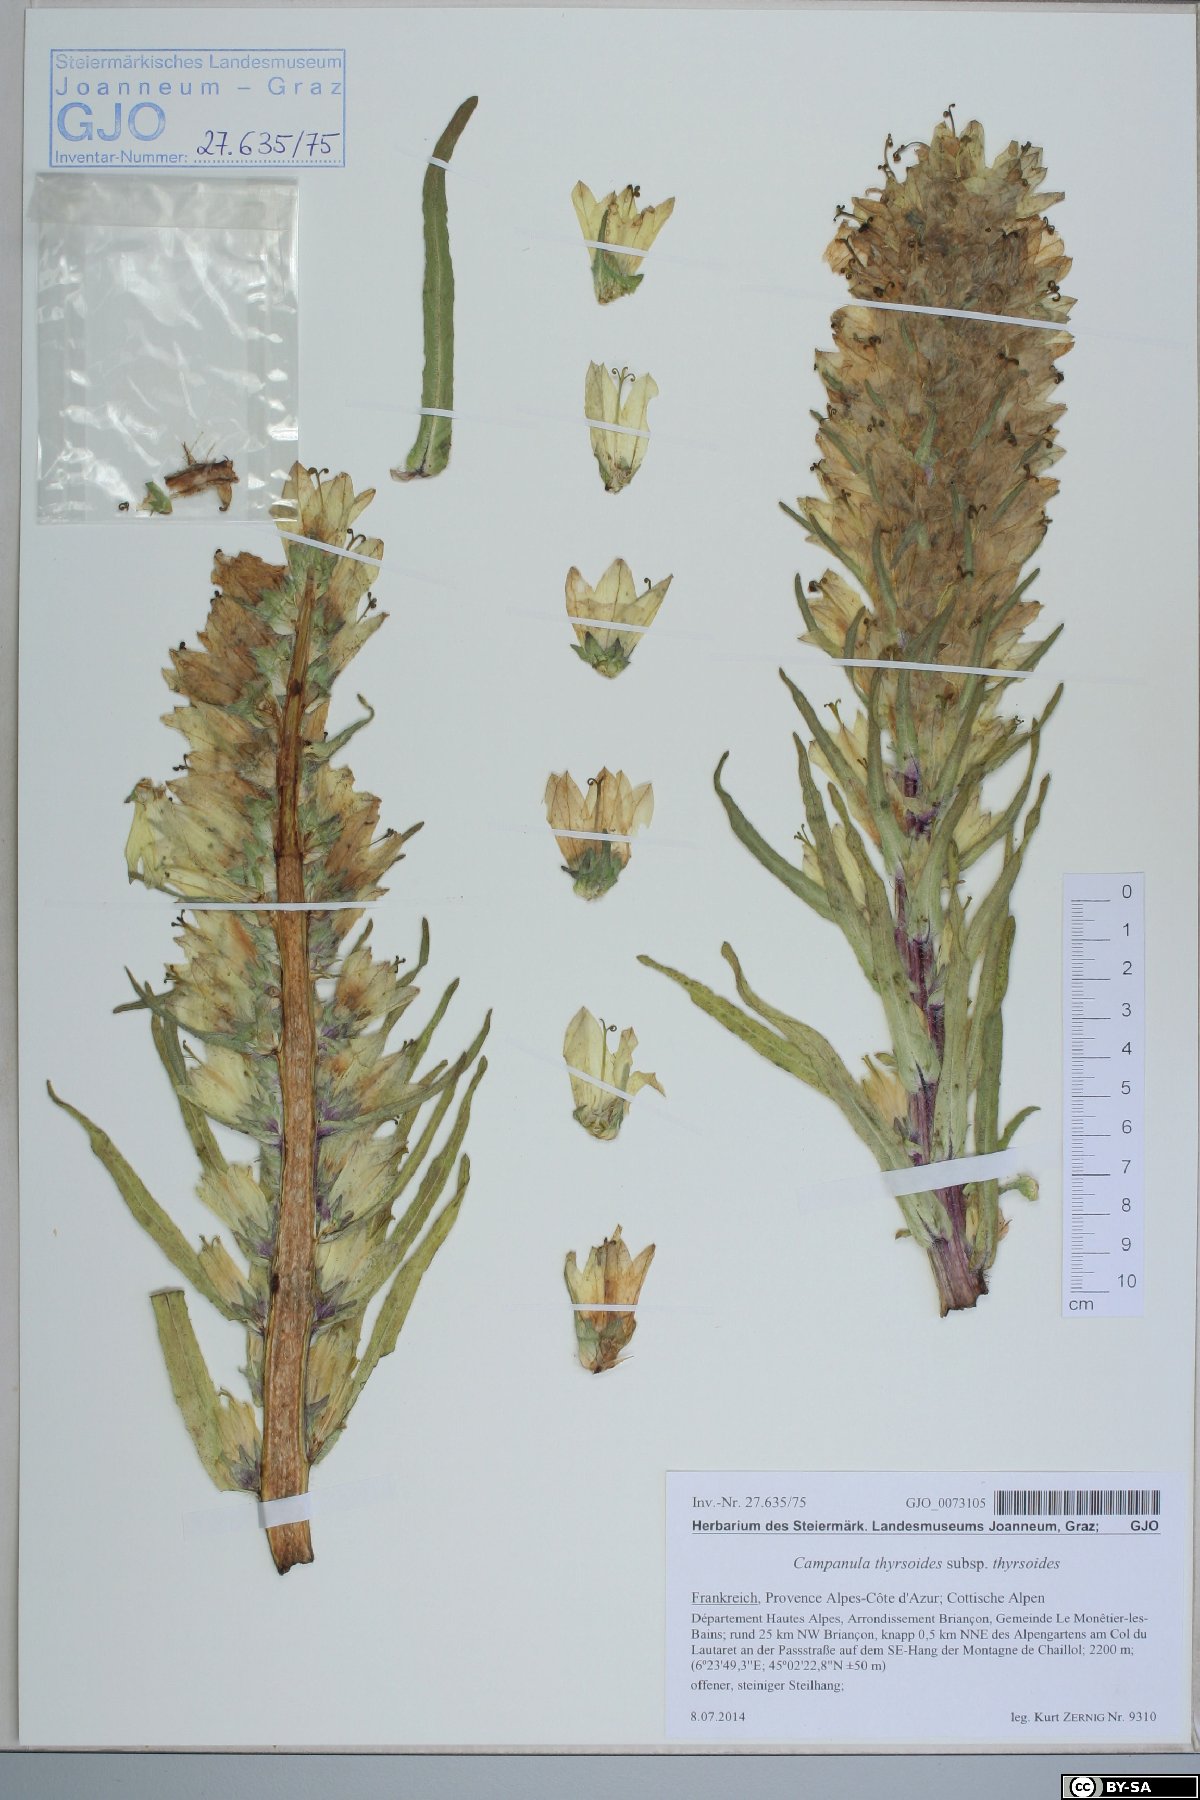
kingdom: Plantae
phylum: Tracheophyta
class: Magnoliopsida
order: Asterales
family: Campanulaceae
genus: Campanula
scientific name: Campanula thyrsoides
